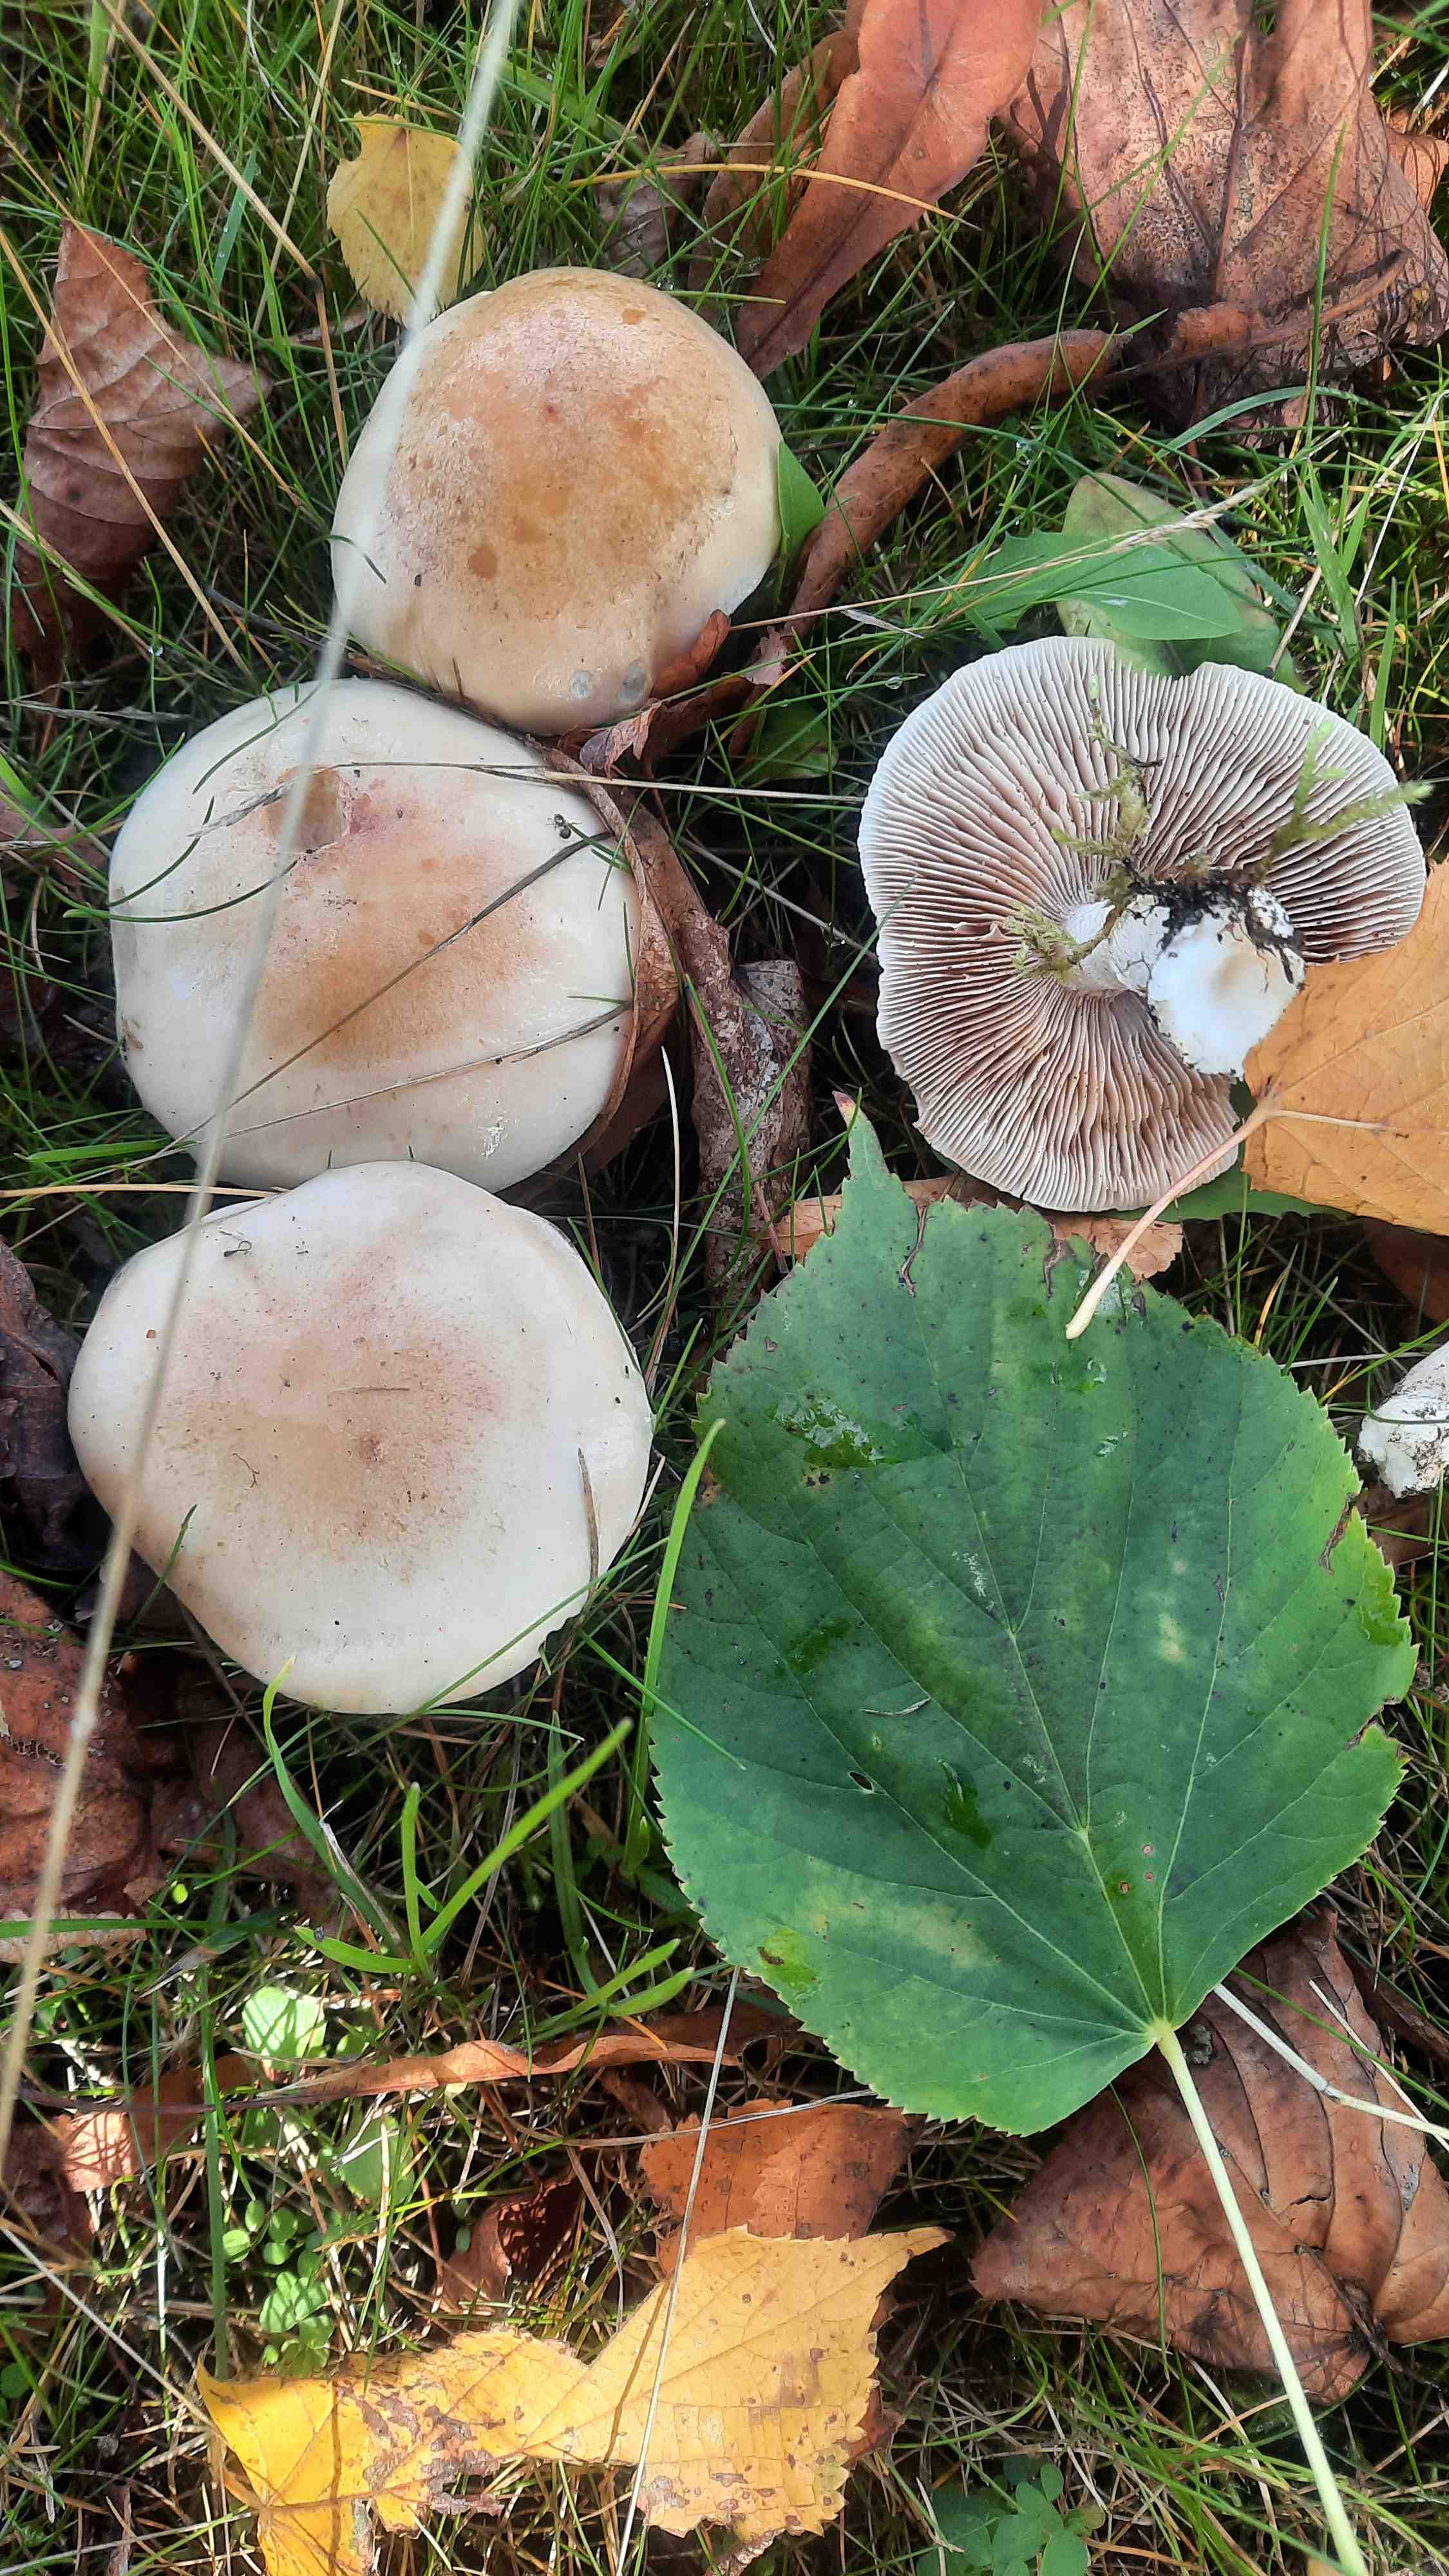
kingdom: Fungi
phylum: Basidiomycota
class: Agaricomycetes
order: Agaricales
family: Hymenogastraceae
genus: Hebeloma
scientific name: Hebeloma crustuliniforme
